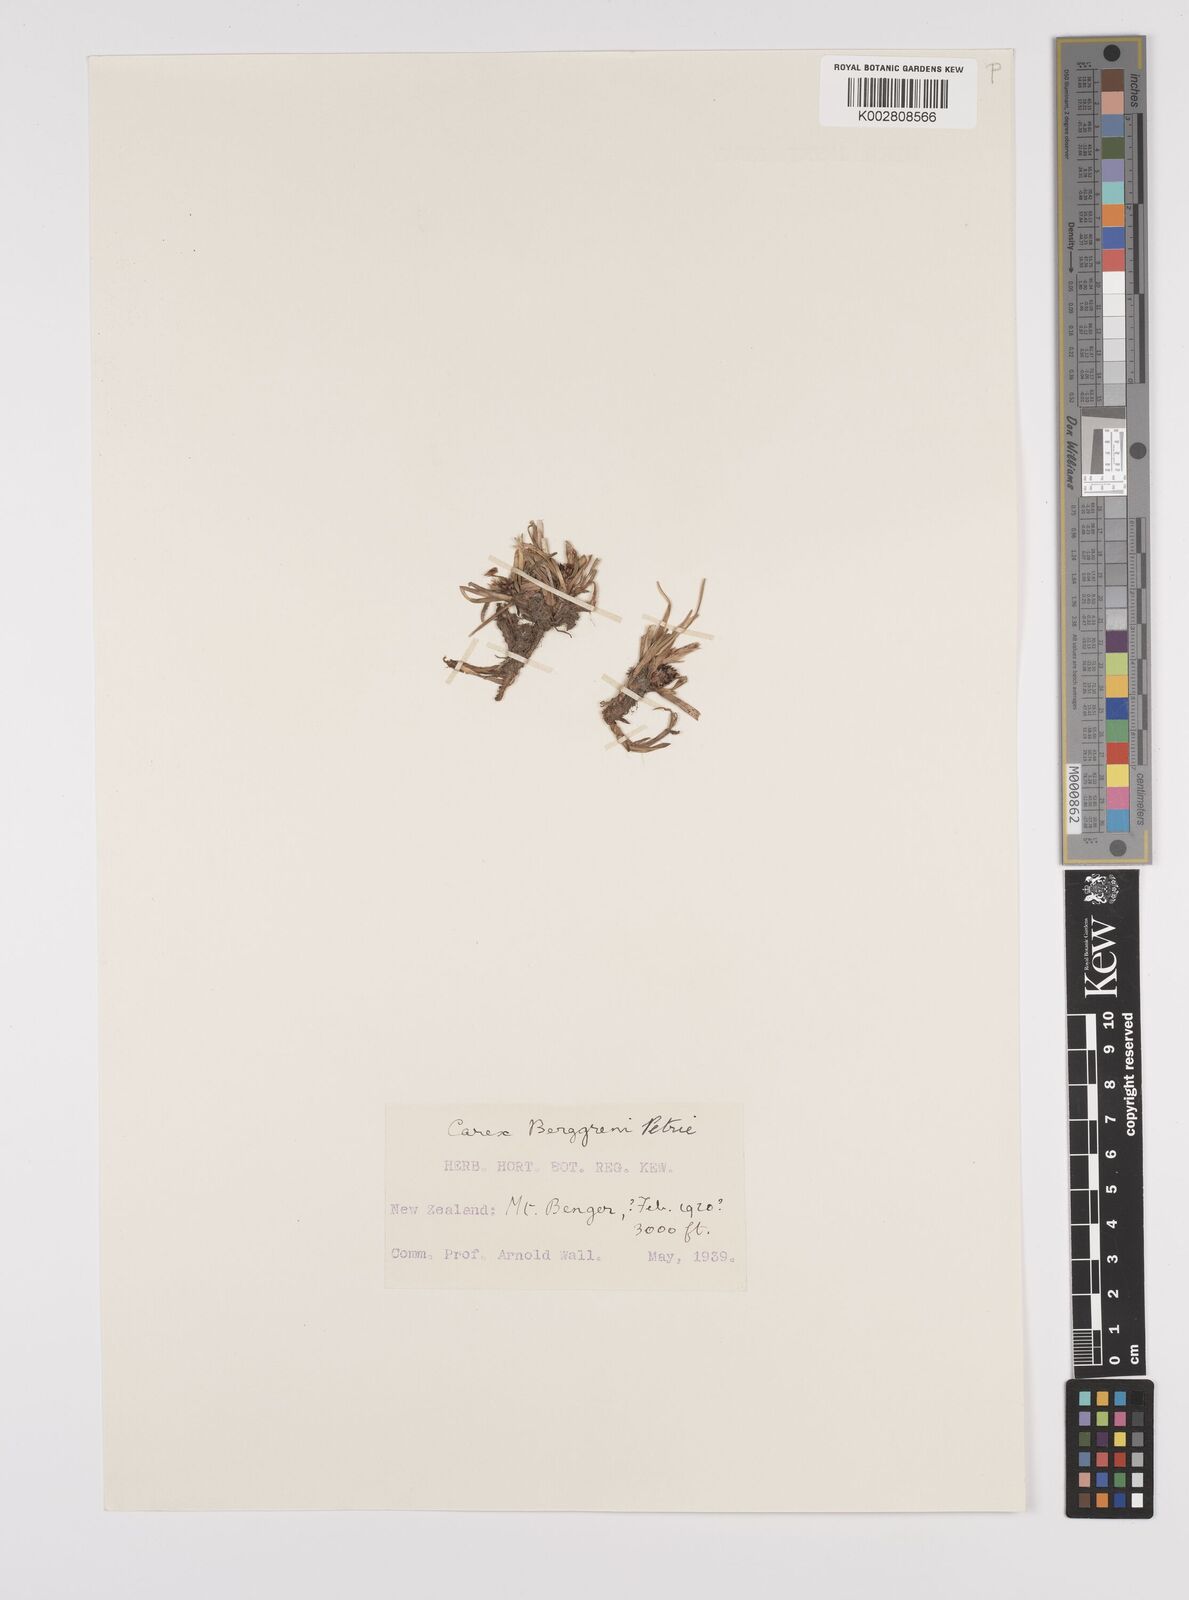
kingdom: Plantae
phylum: Tracheophyta
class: Liliopsida
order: Poales
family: Cyperaceae
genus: Carex
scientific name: Carex talbotii
